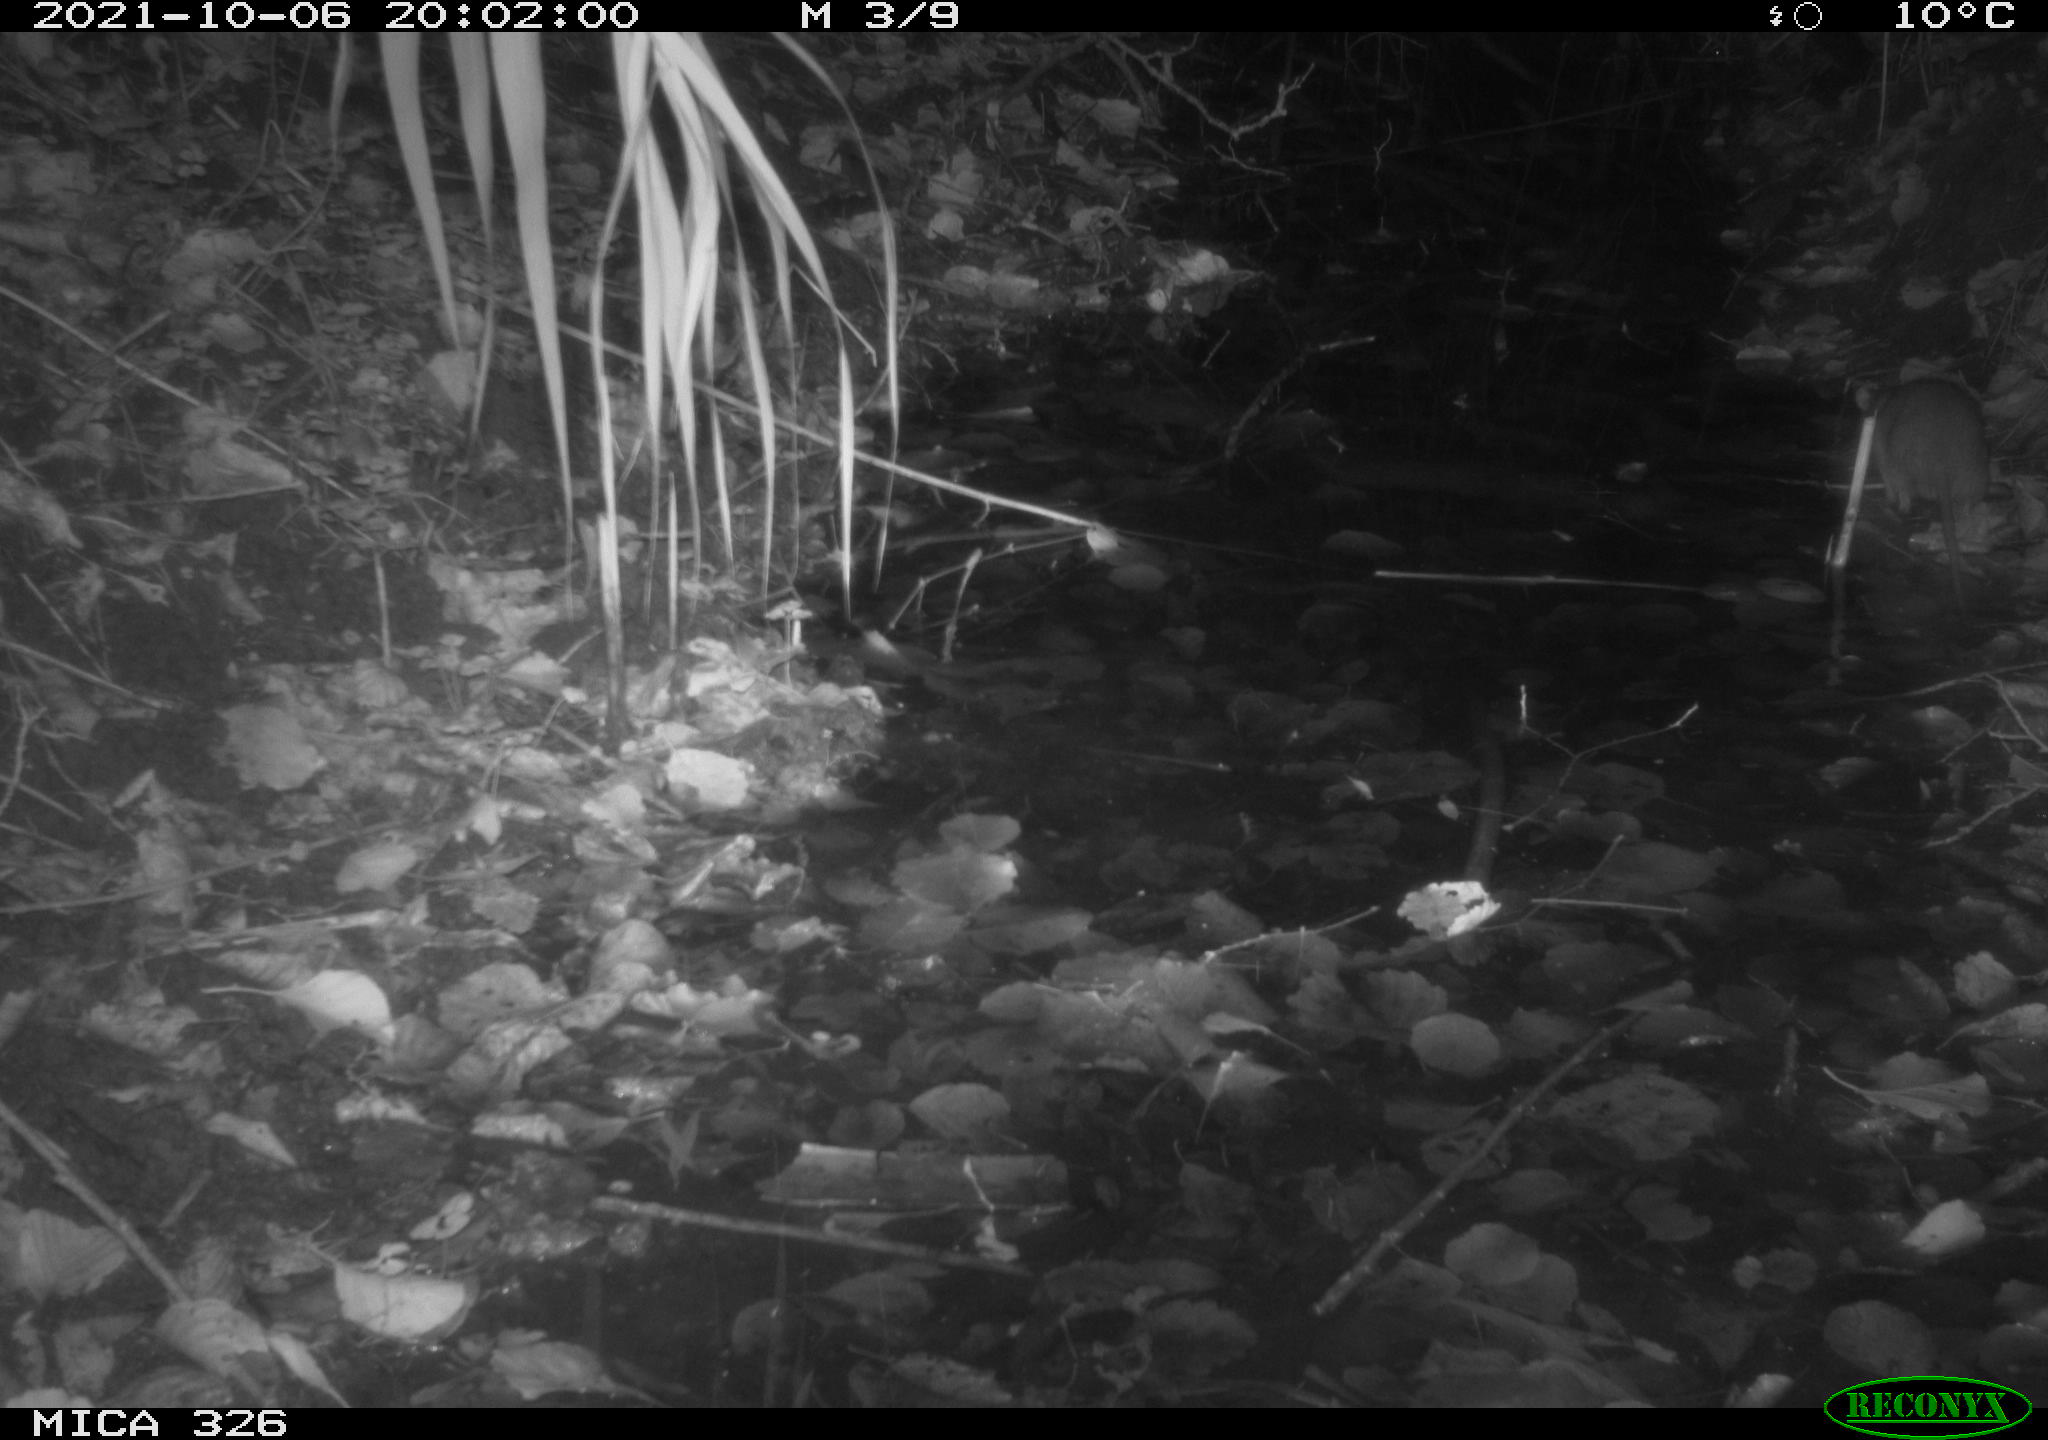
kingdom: Animalia
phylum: Chordata
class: Mammalia
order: Rodentia
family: Muridae
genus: Rattus
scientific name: Rattus norvegicus
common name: Brown rat
